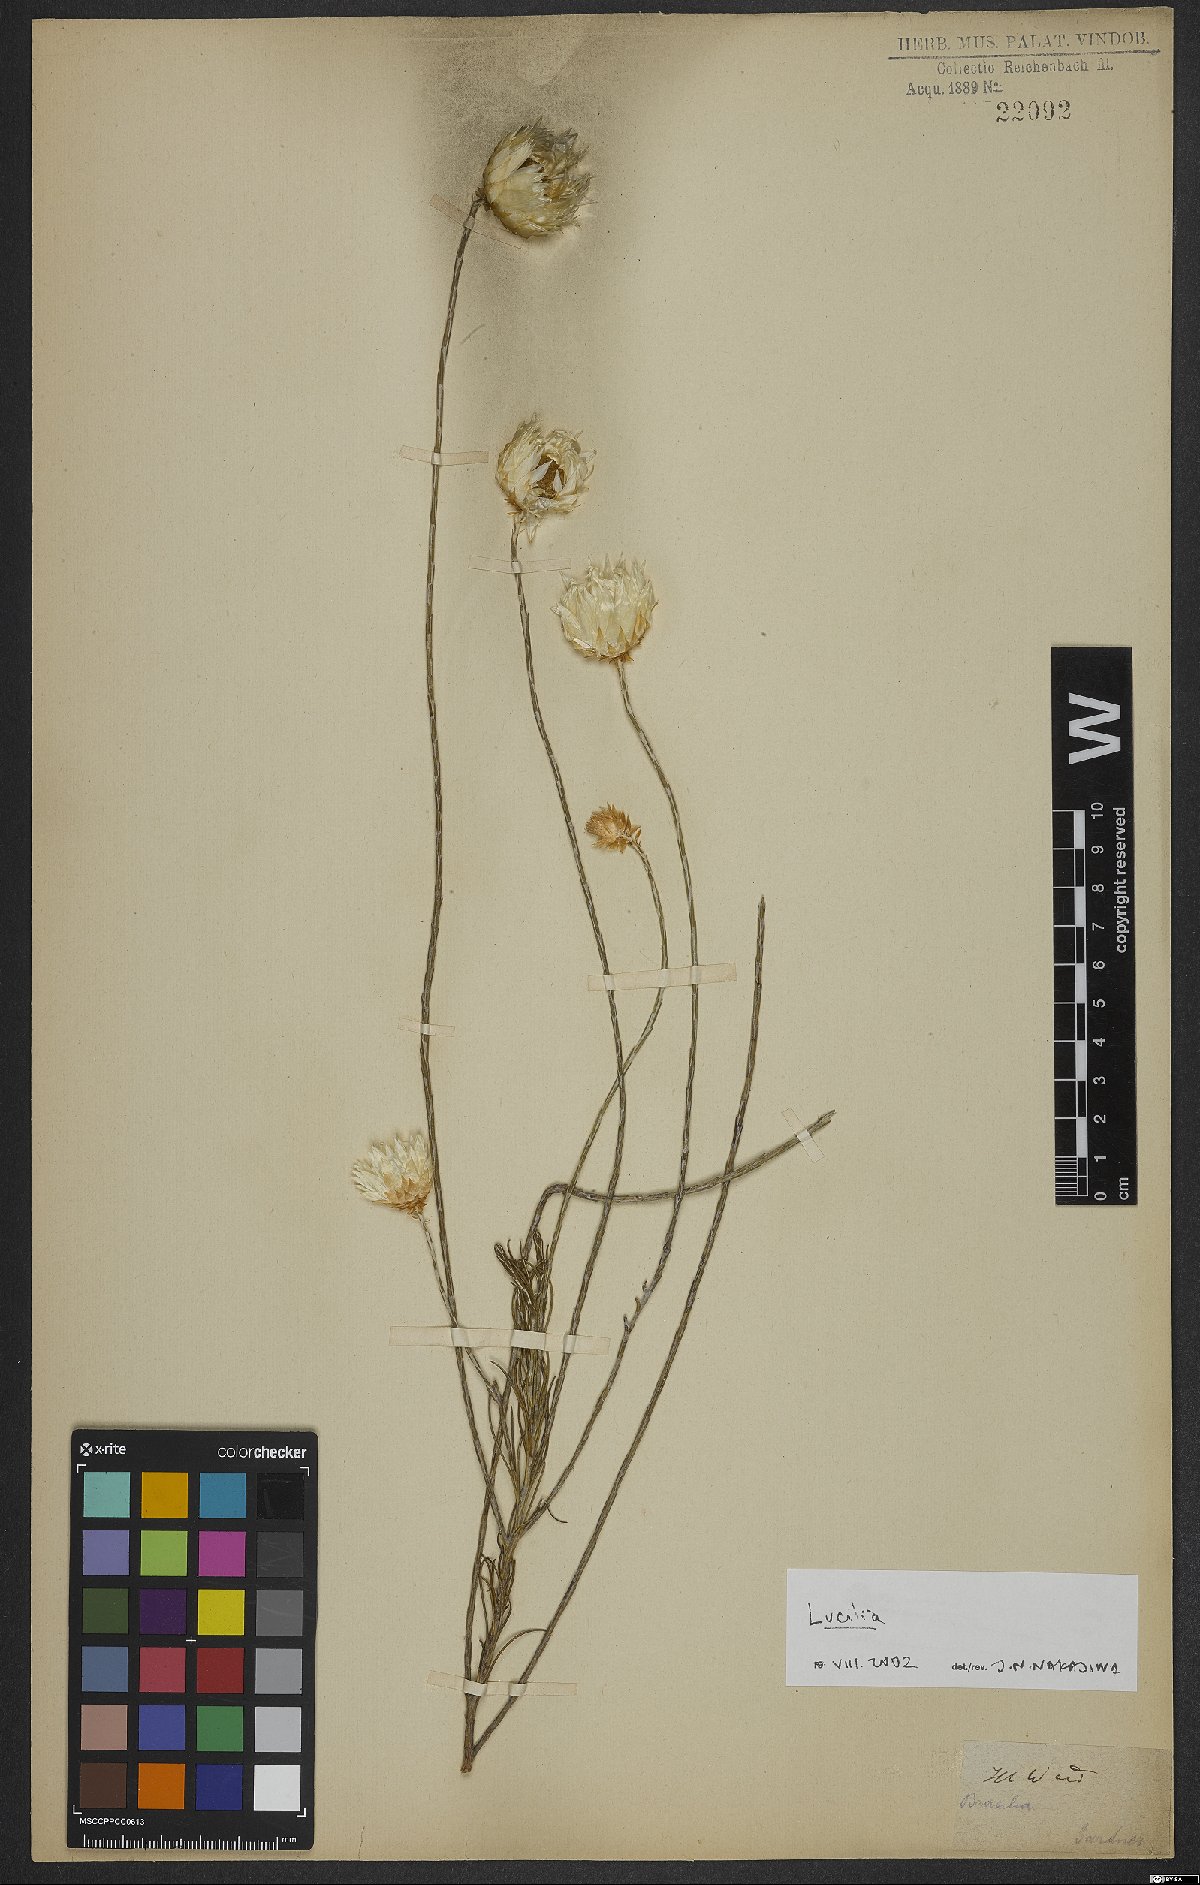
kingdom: Plantae
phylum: Tracheophyta
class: Magnoliopsida
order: Asterales
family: Asteraceae
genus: Lucilia
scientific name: Lucilia
